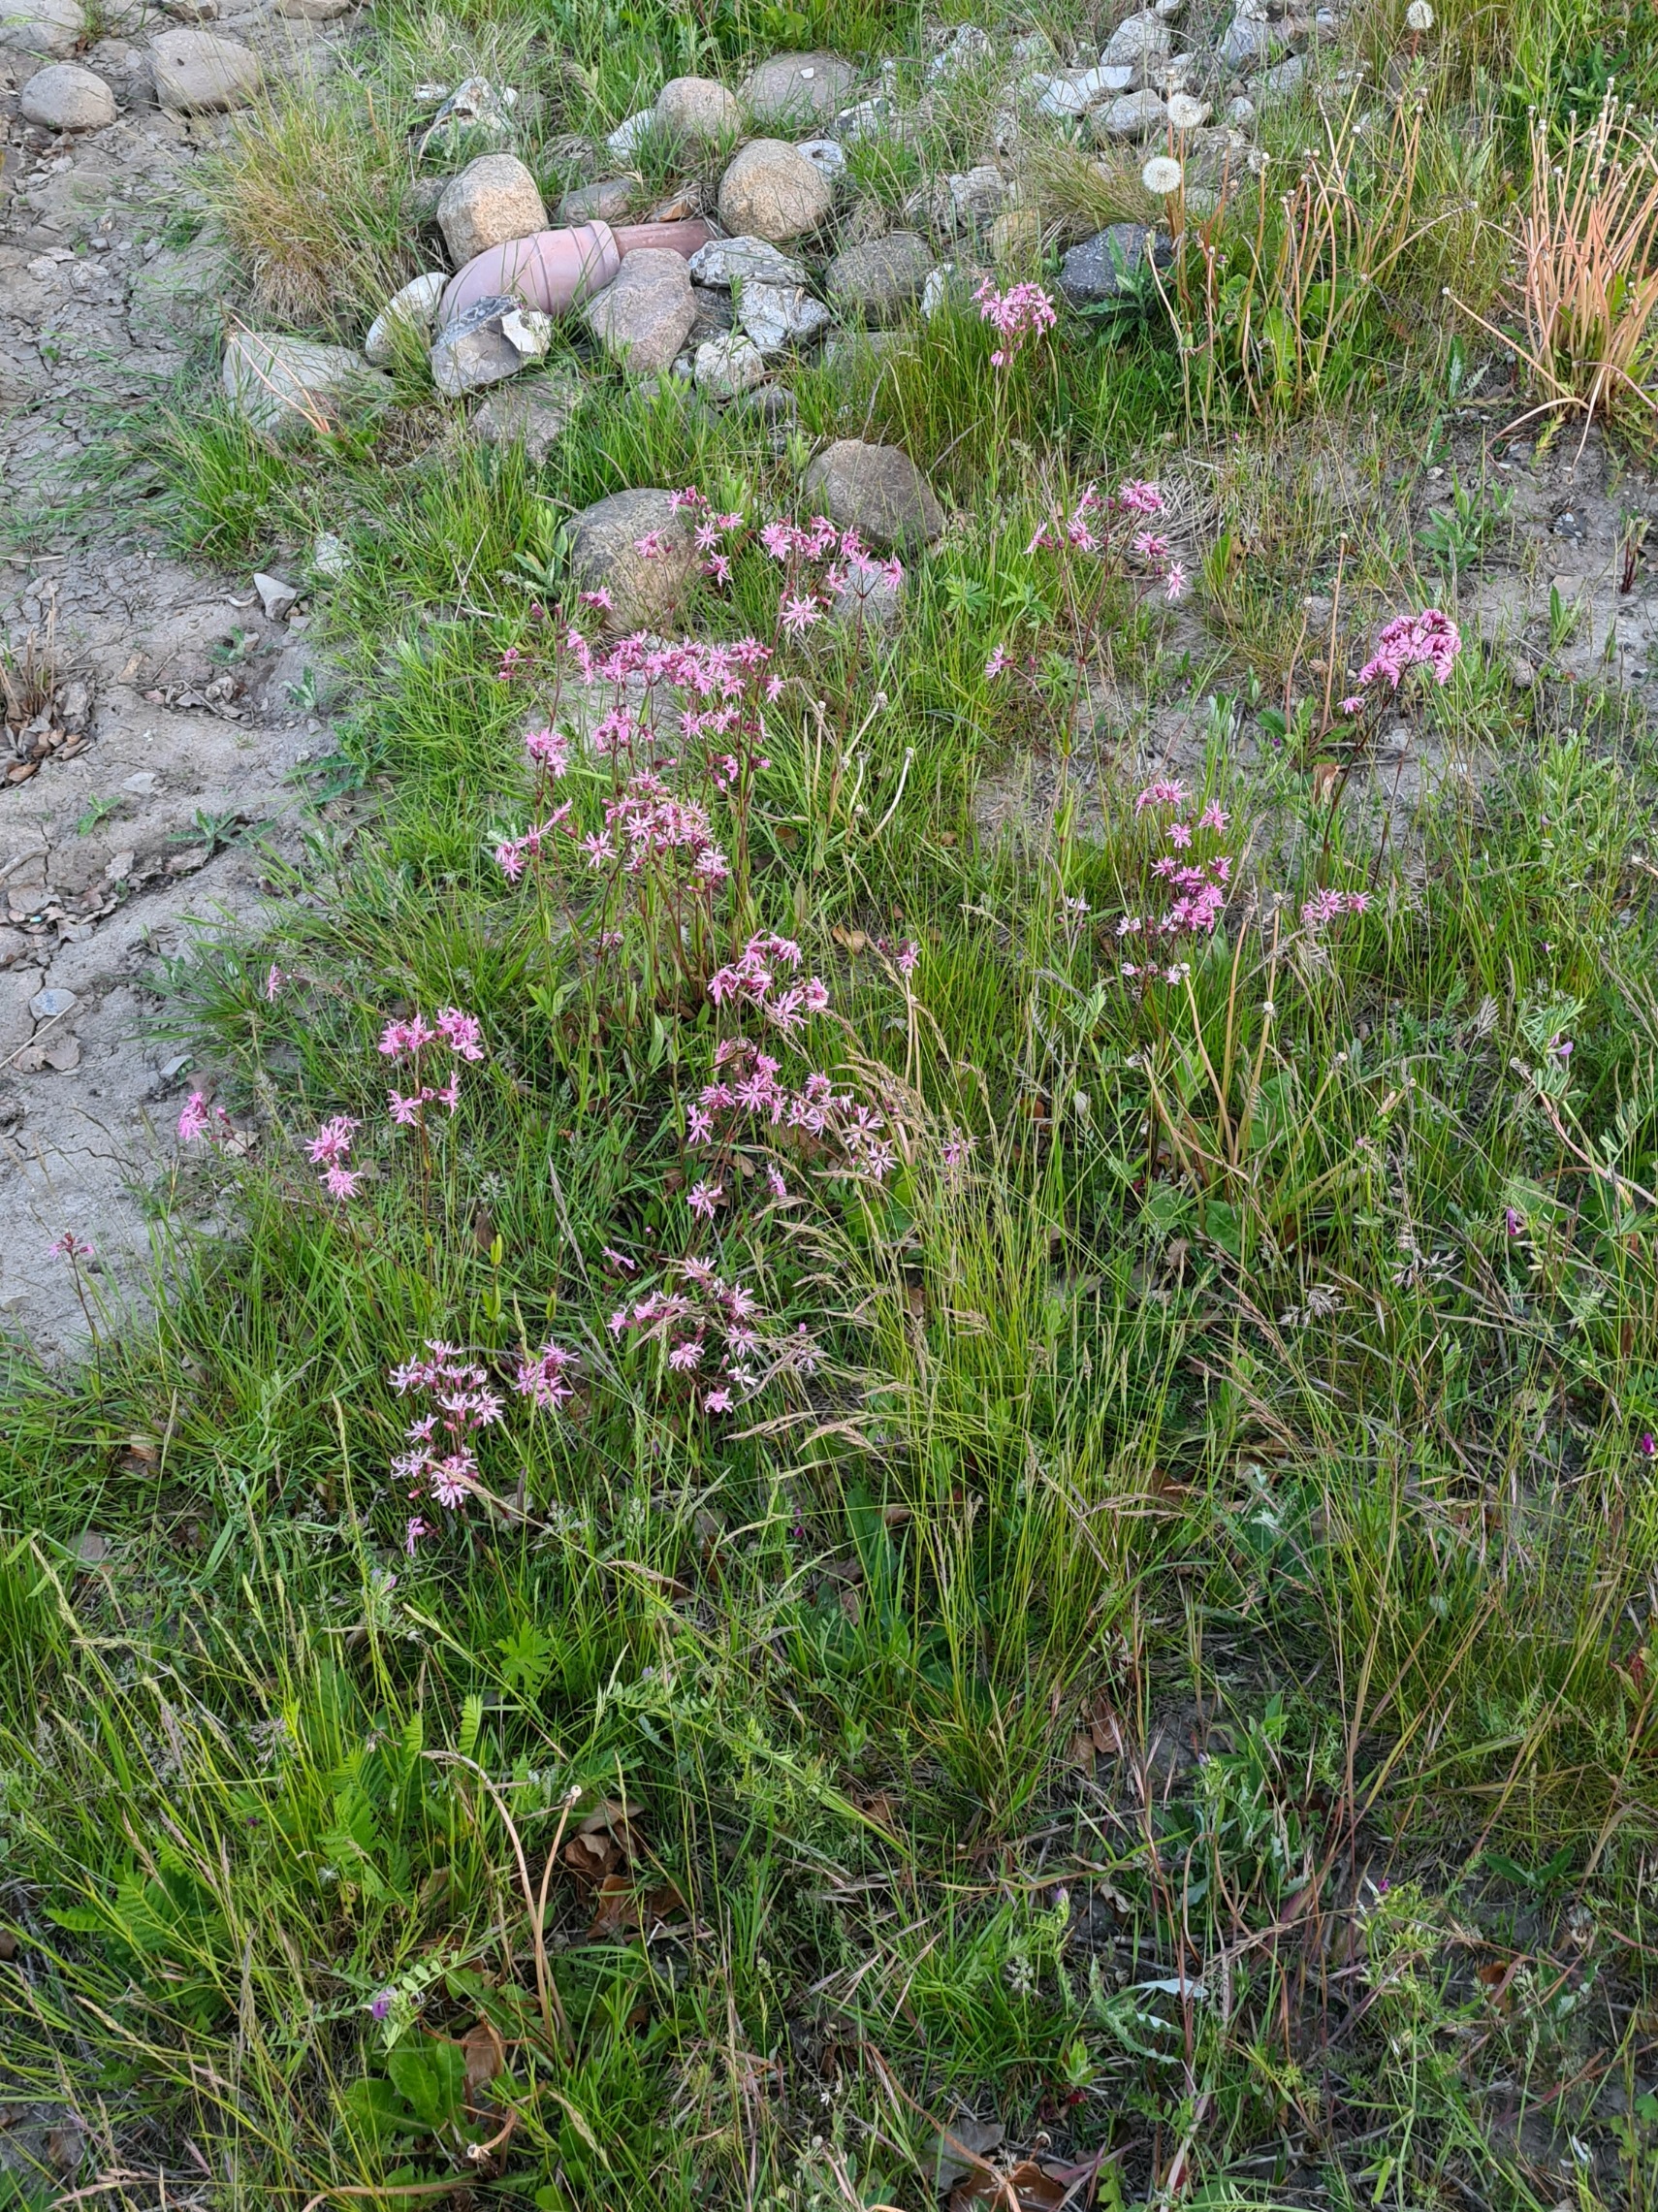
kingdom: Plantae
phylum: Tracheophyta
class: Magnoliopsida
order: Caryophyllales
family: Caryophyllaceae
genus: Silene
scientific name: Silene flos-cuculi
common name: Trævlekrone
